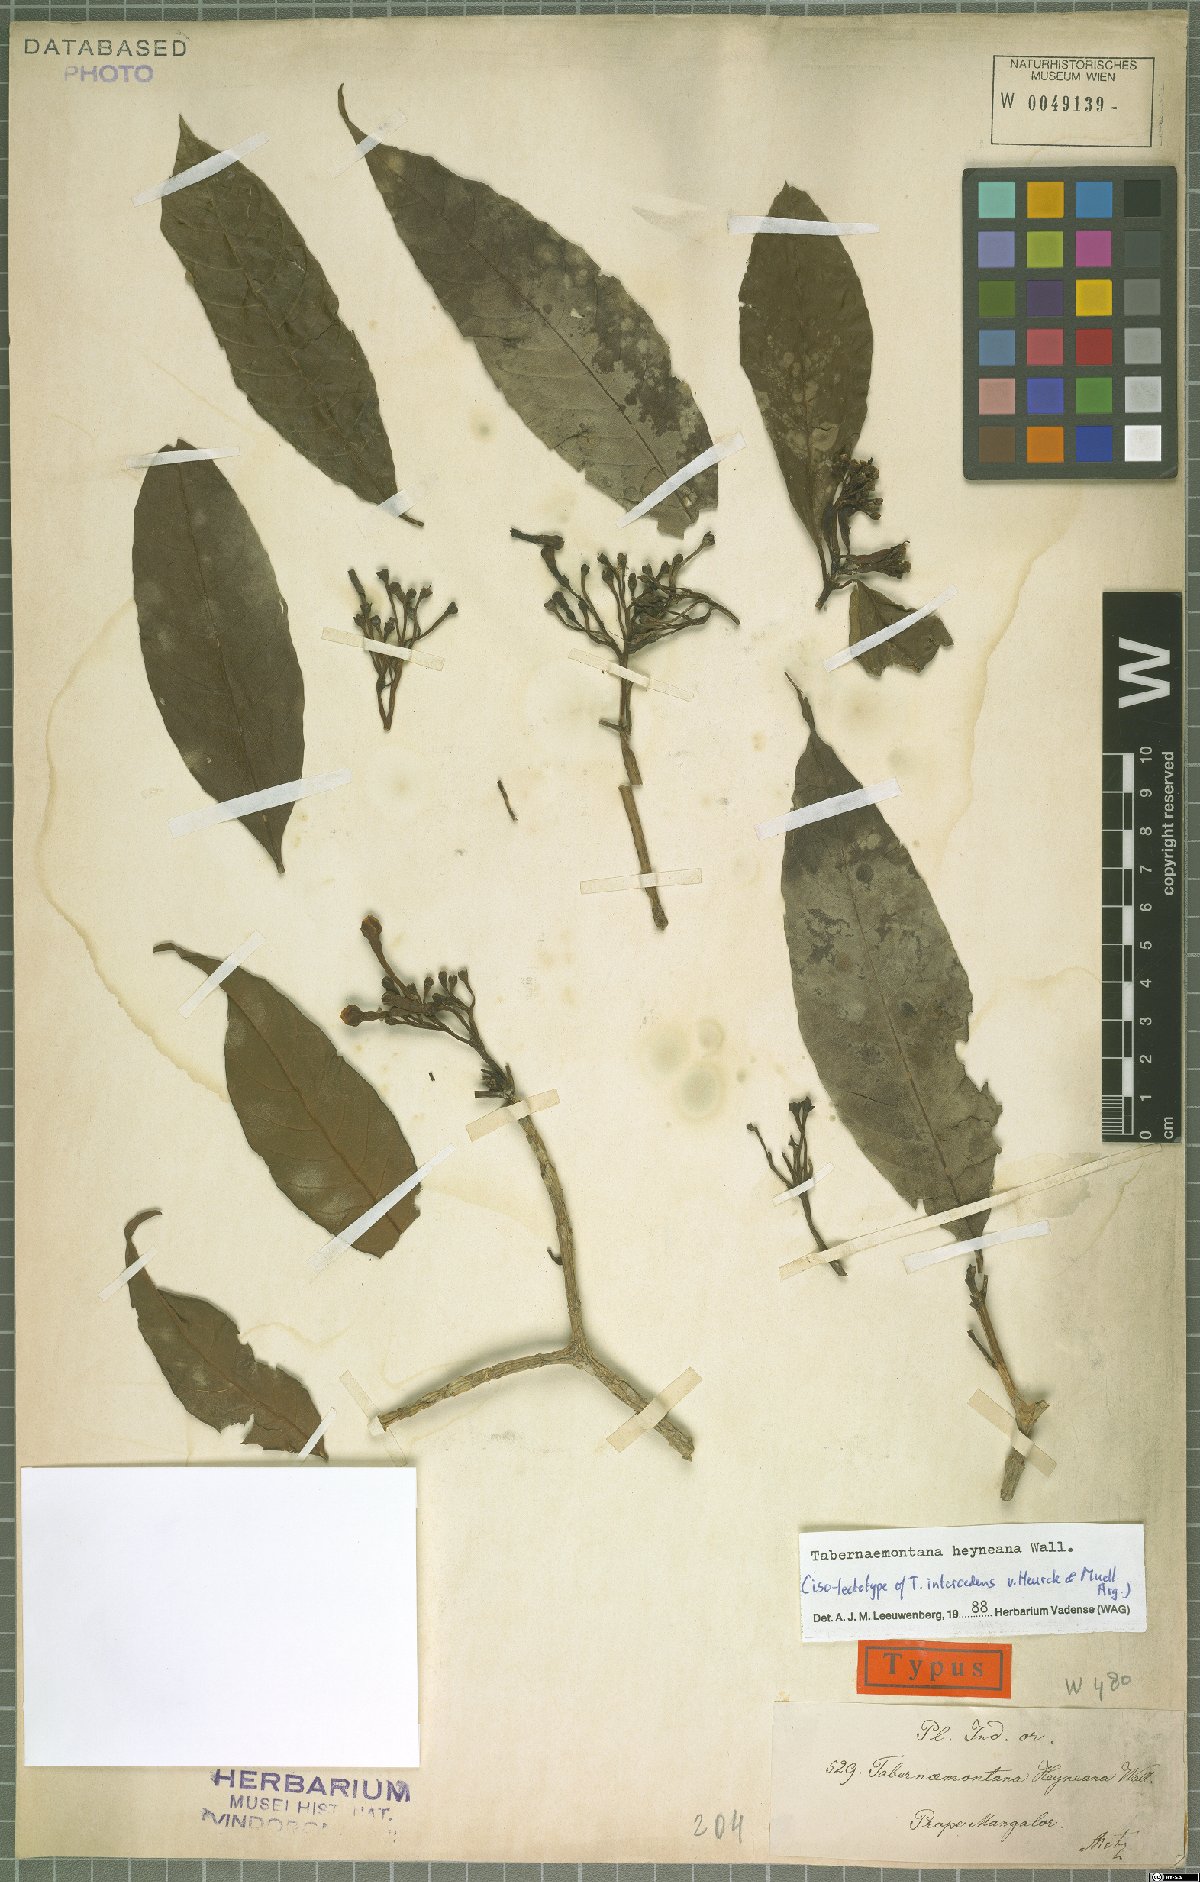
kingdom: Plantae
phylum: Tracheophyta
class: Magnoliopsida
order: Gentianales
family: Apocynaceae
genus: Tabernaemontana
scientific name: Tabernaemontana alternifolia
